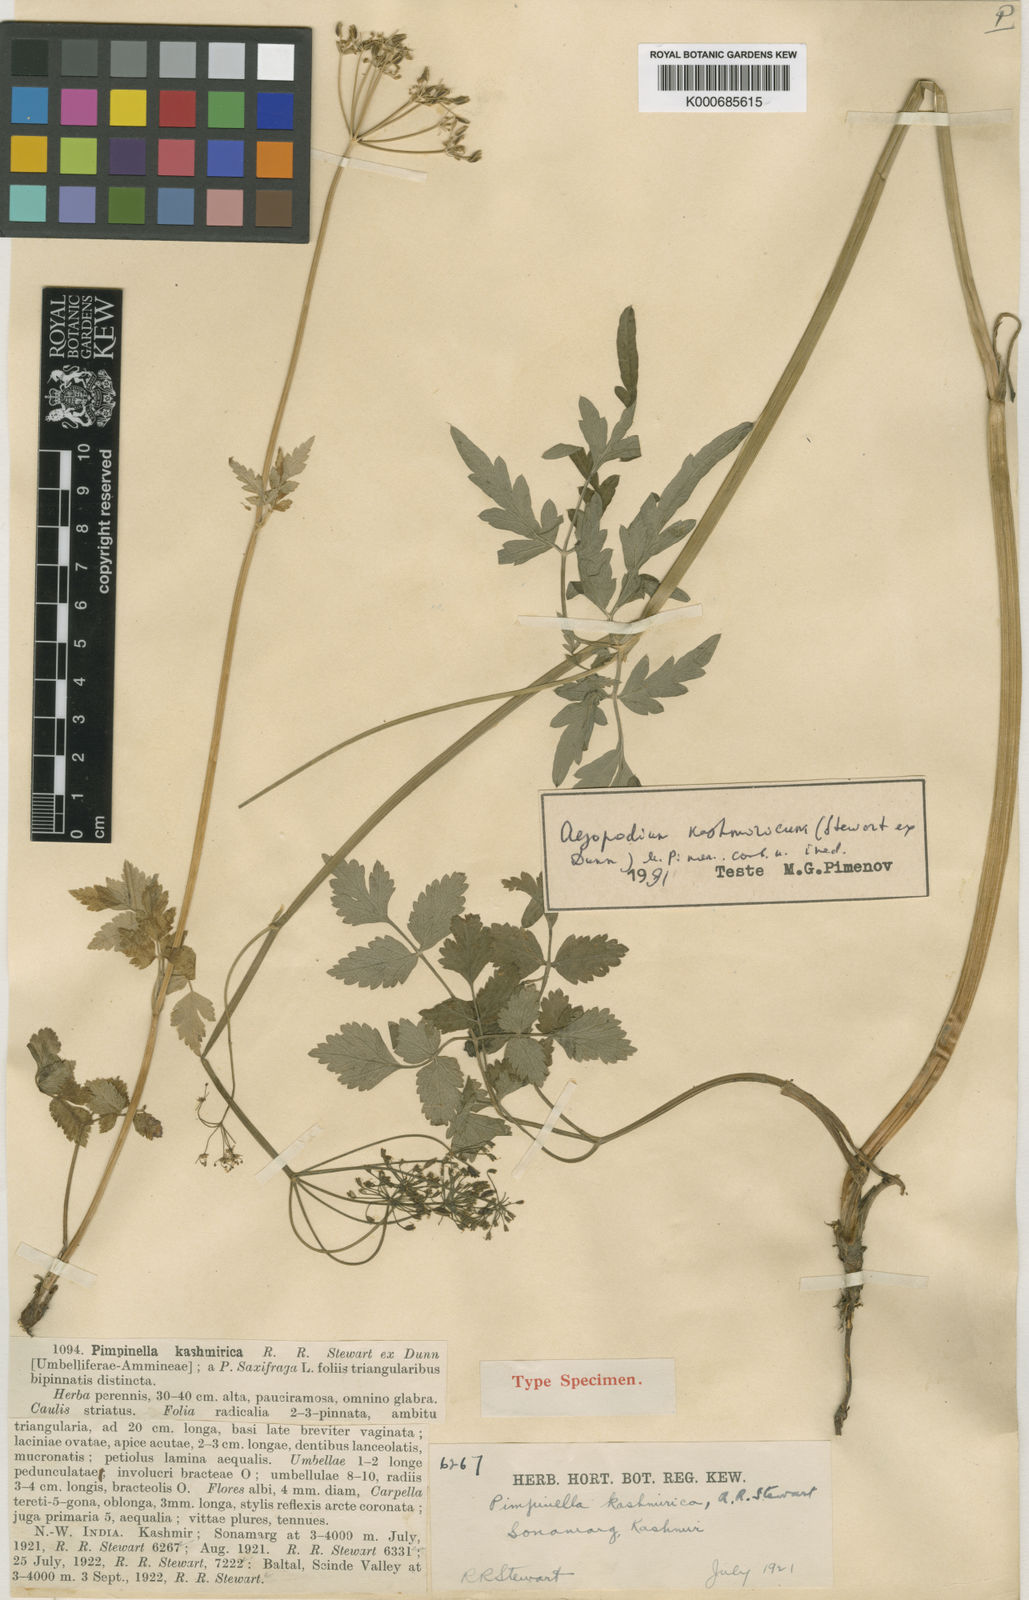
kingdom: Plantae
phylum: Tracheophyta
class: Magnoliopsida
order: Apiales
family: Apiaceae
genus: Aegopodium
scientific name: Aegopodium kashmiricum
